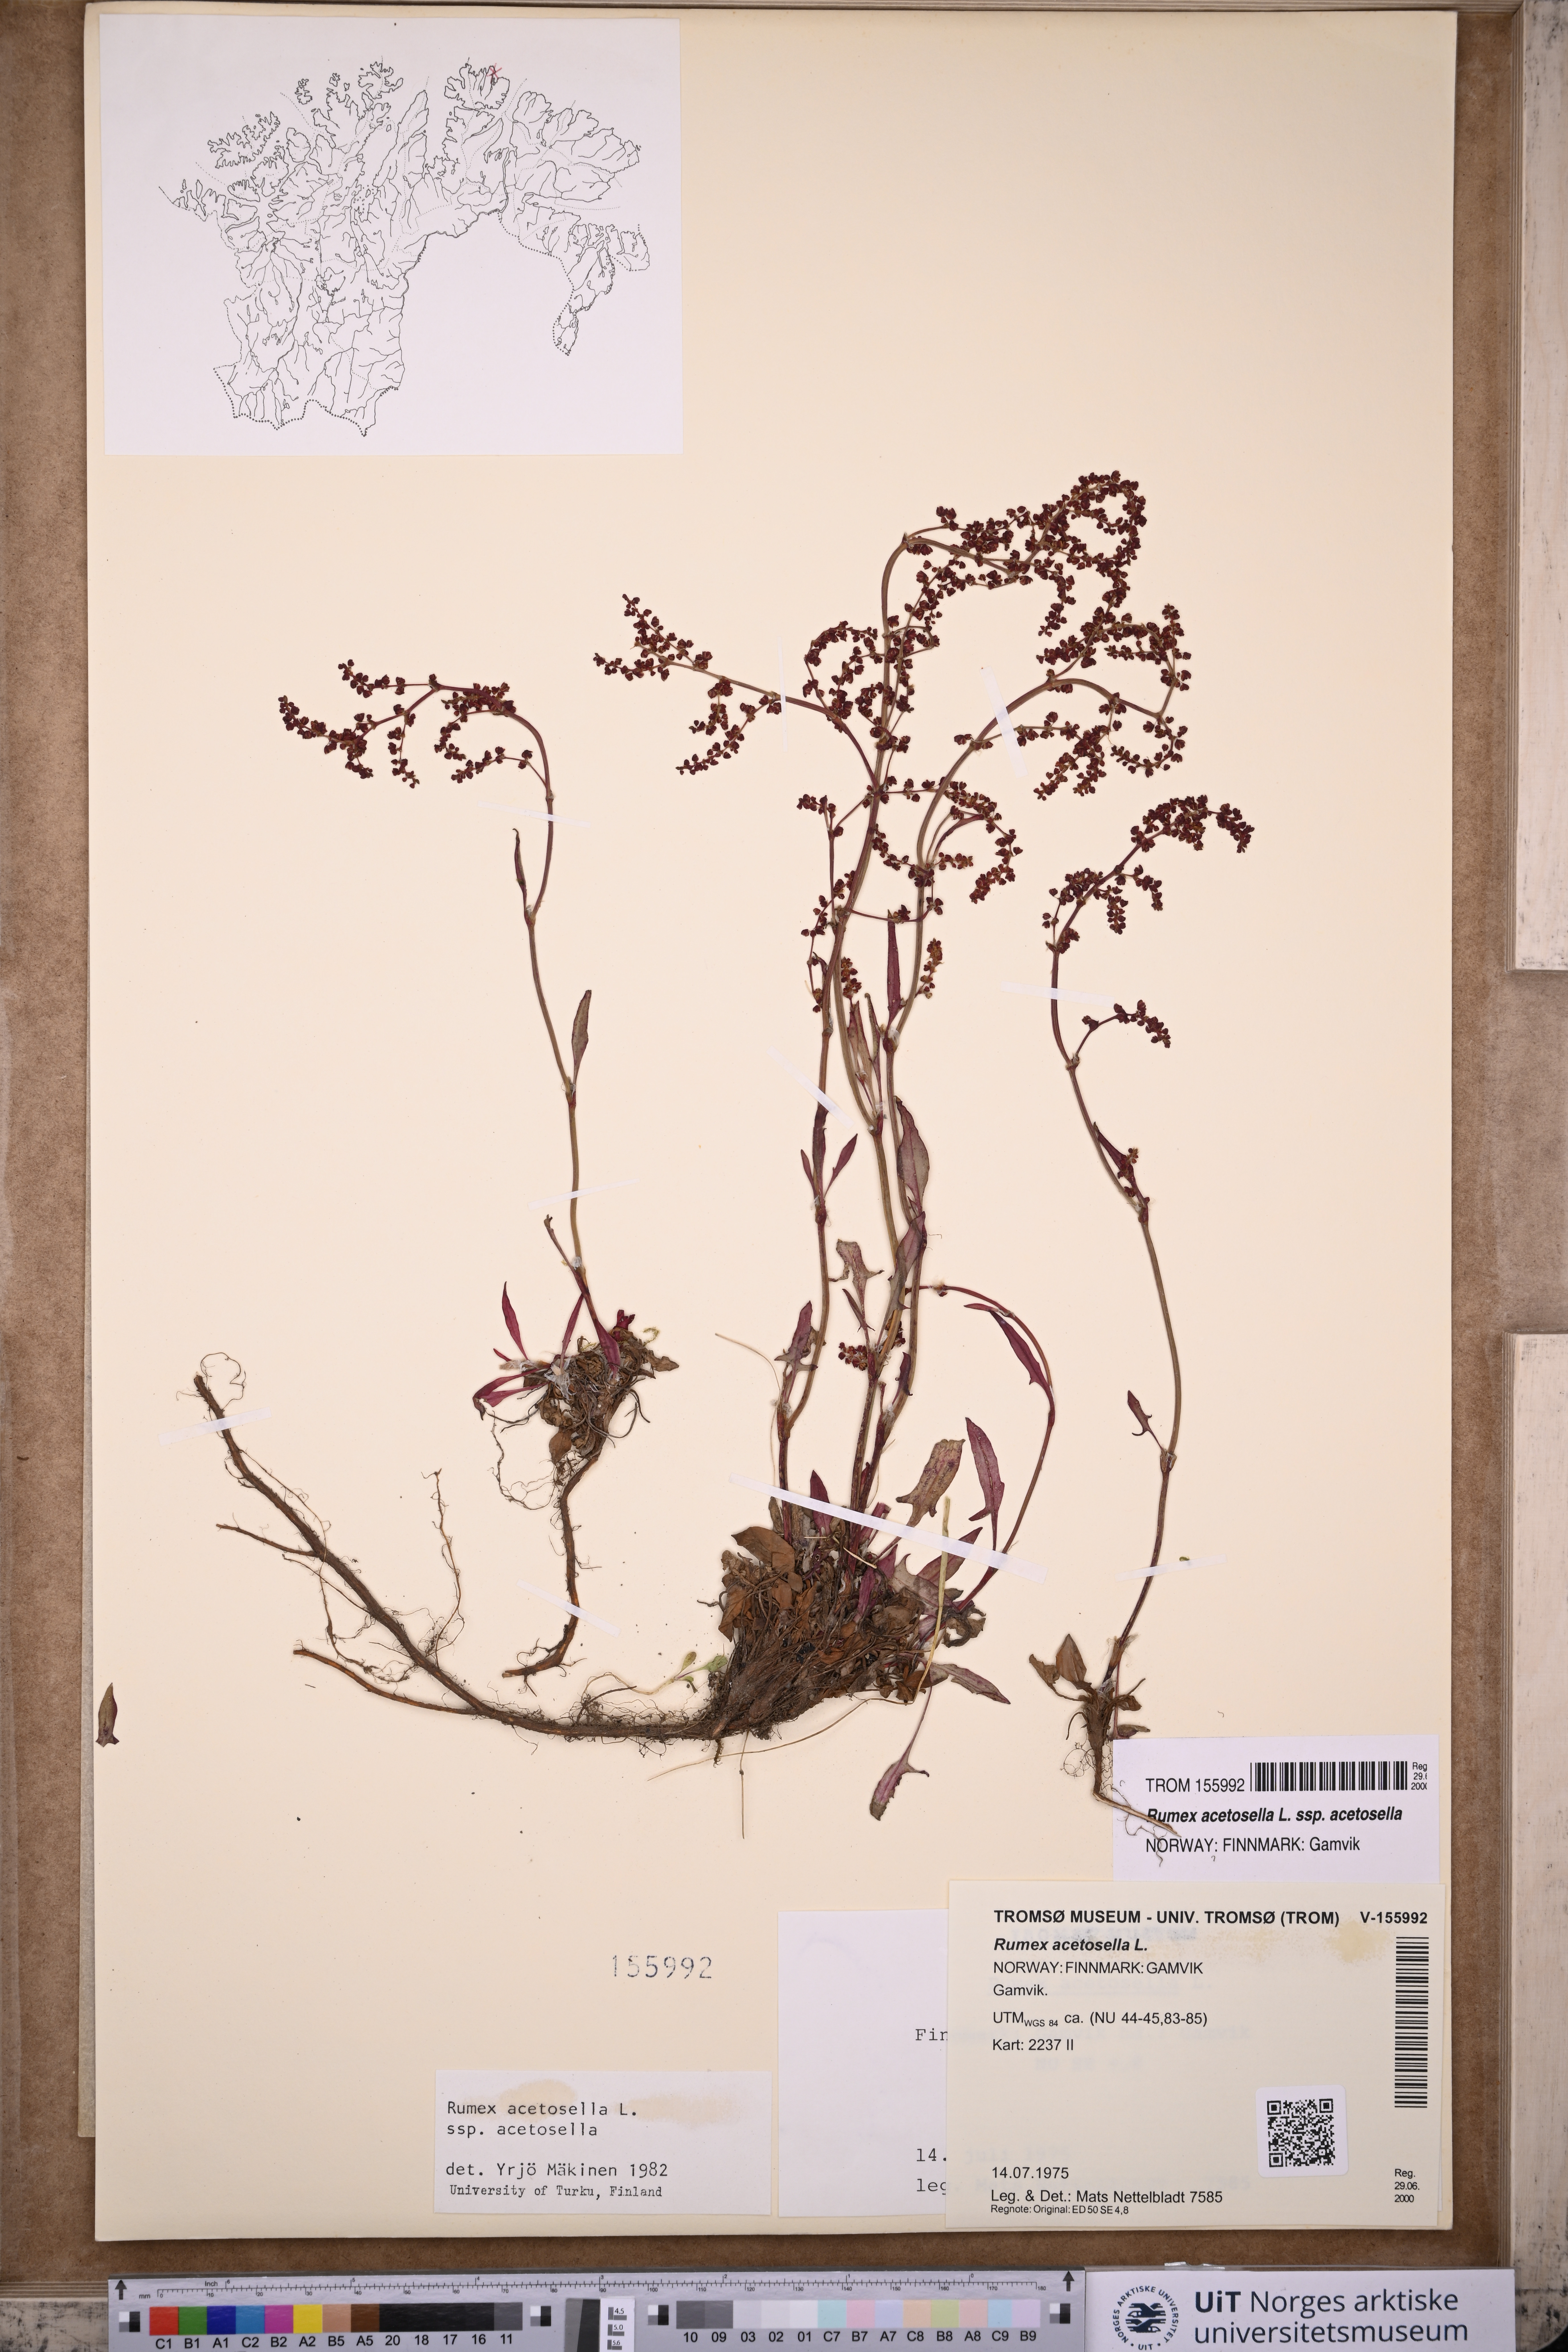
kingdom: Plantae
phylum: Tracheophyta
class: Magnoliopsida
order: Caryophyllales
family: Polygonaceae
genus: Rumex
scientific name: Rumex acetosella
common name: Common sheep sorrel
